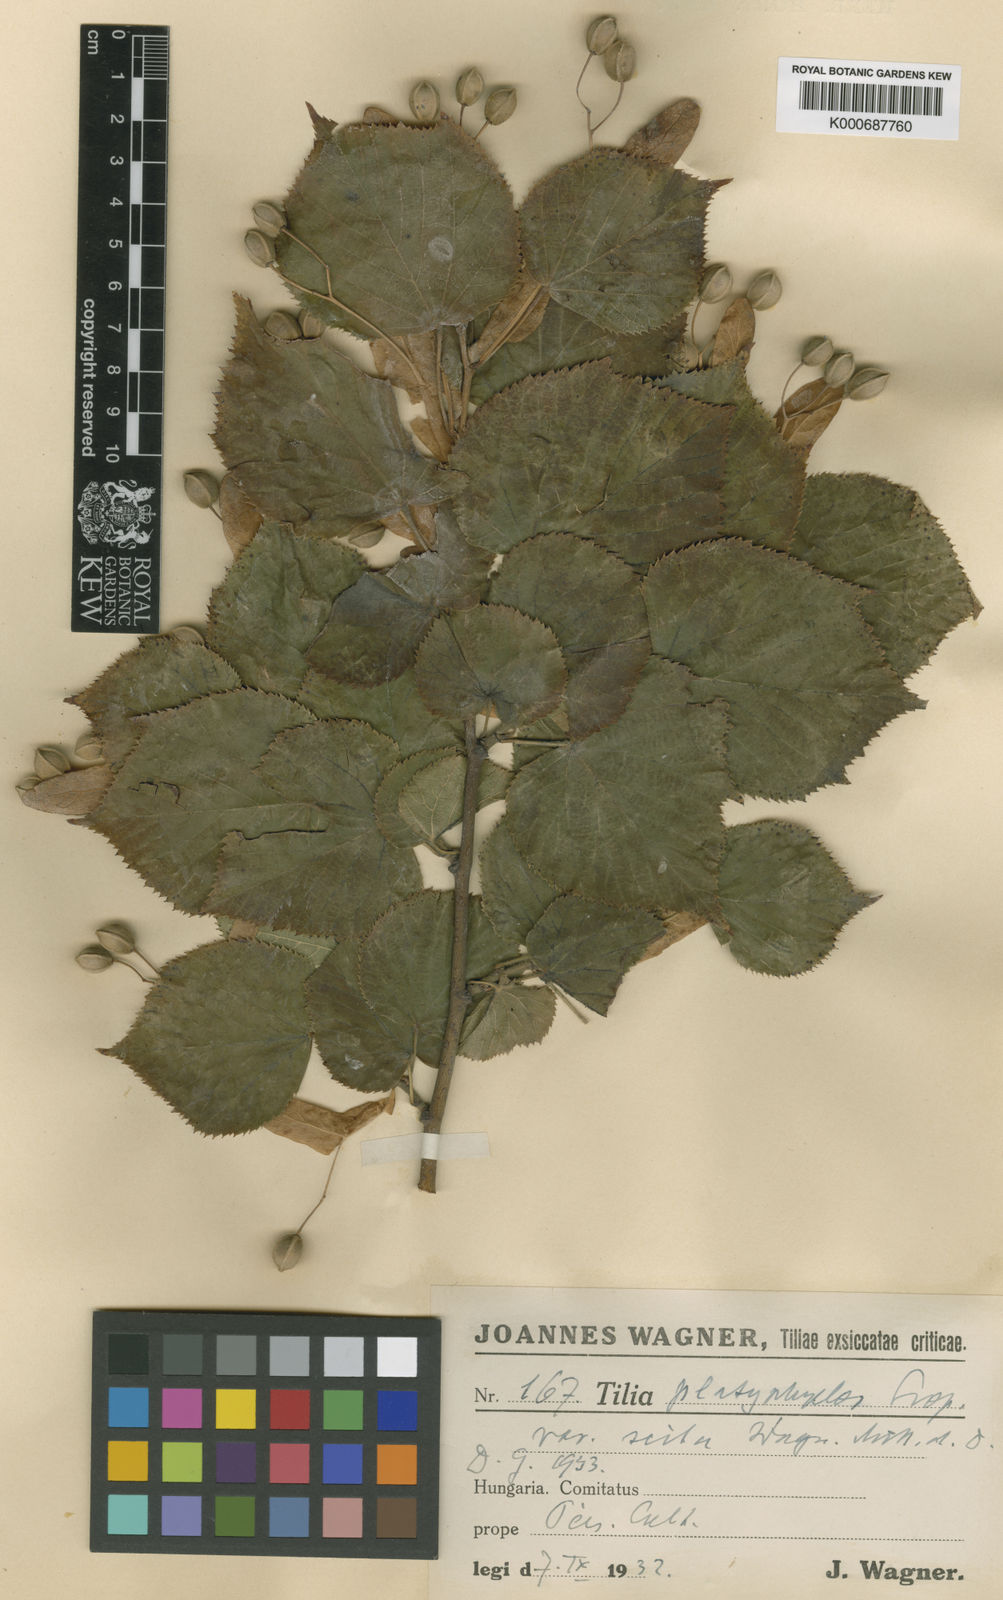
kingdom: Plantae
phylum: Tracheophyta
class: Magnoliopsida
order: Malvales
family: Malvaceae
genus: Tilia
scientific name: Tilia platyphyllos
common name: Large-leaved lime
